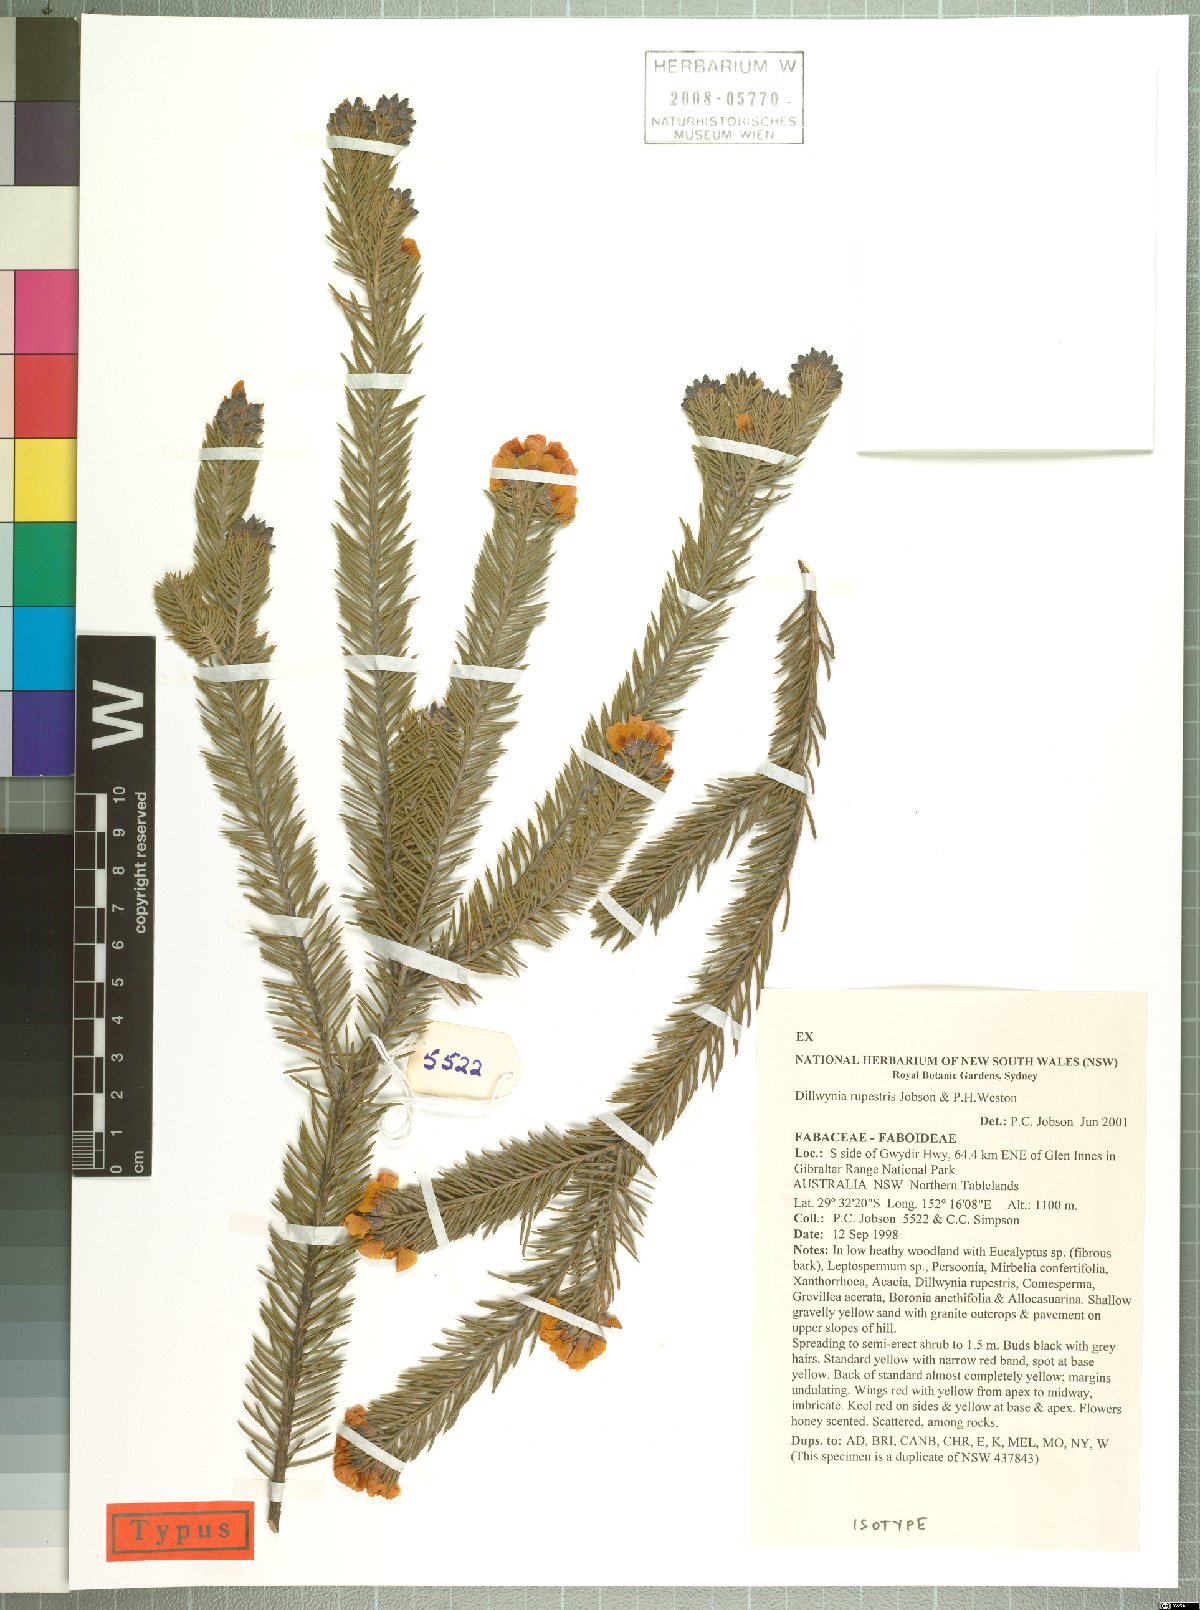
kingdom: Plantae
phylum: Tracheophyta
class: Magnoliopsida
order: Fabales
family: Fabaceae
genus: Dillwynia
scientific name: Dillwynia rupestris
